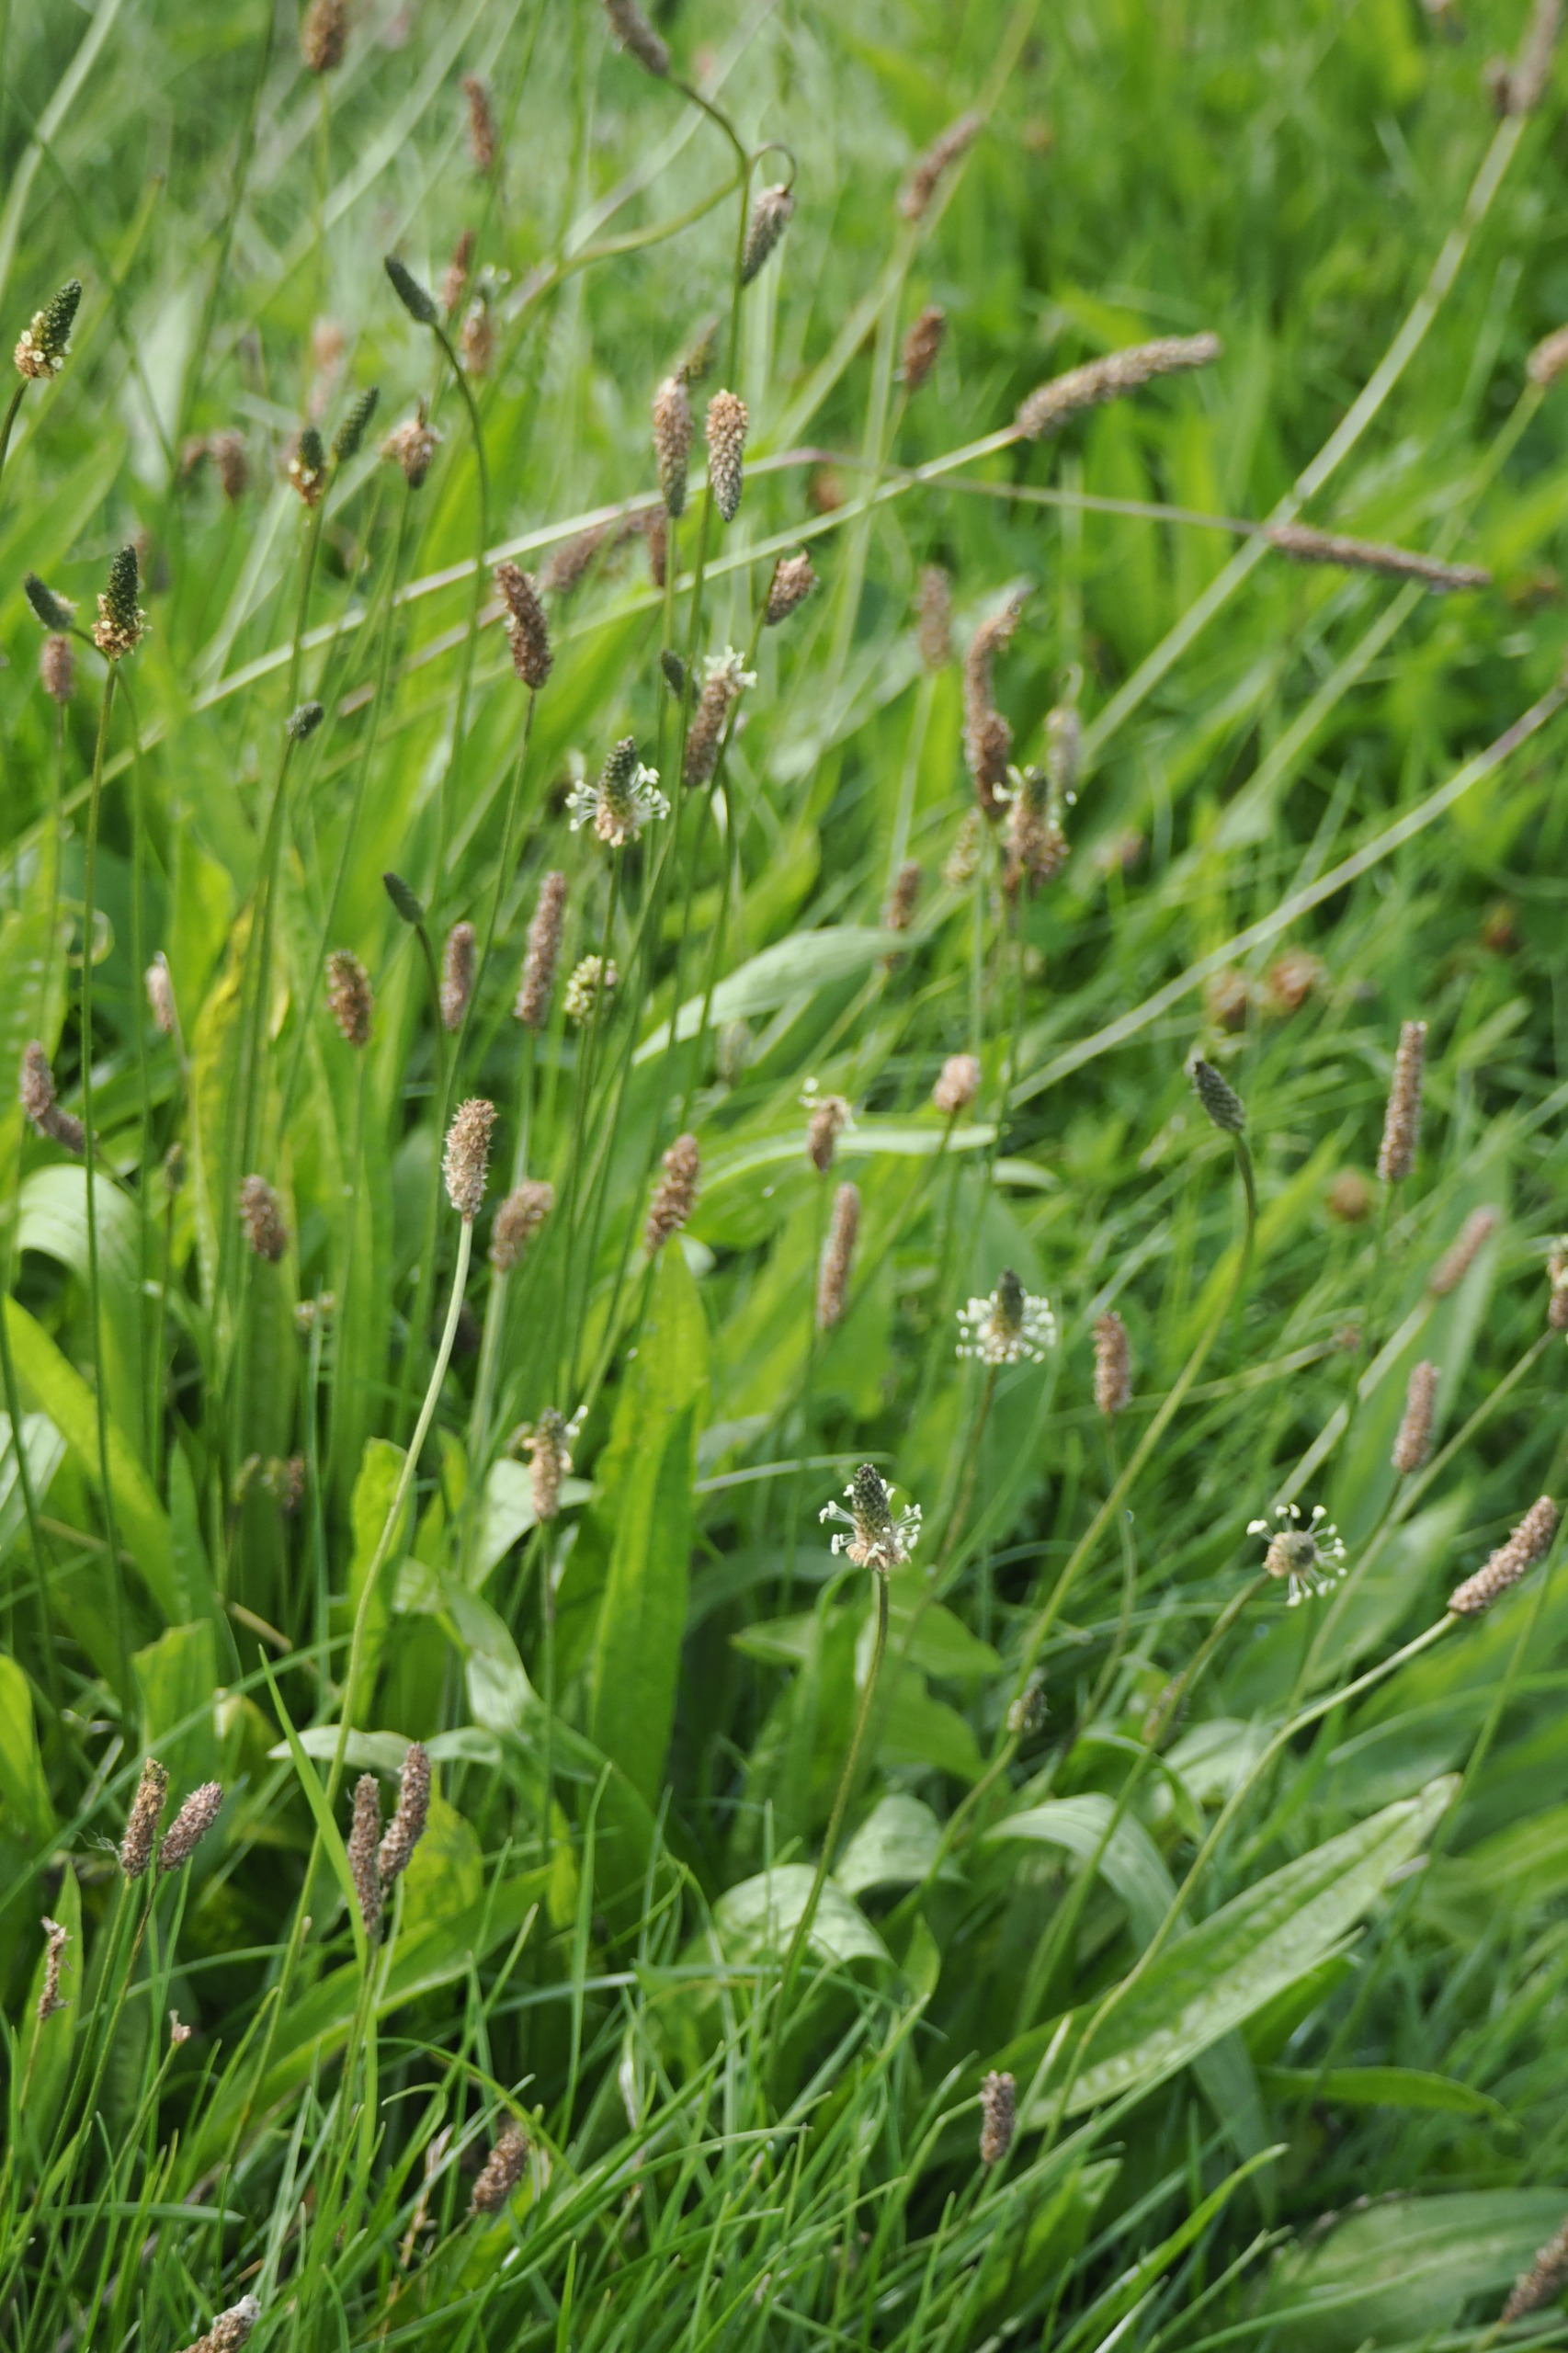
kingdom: Plantae
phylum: Tracheophyta
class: Magnoliopsida
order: Lamiales
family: Plantaginaceae
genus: Plantago
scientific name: Plantago lanceolata
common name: Lancet-vejbred
